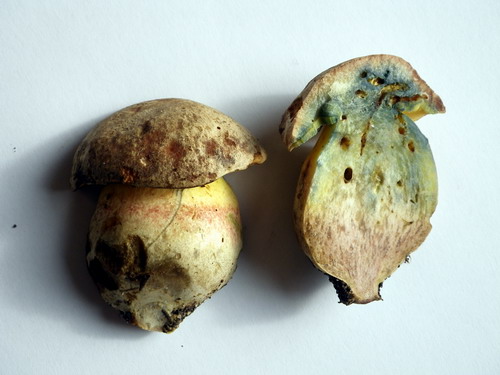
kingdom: Fungi
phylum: Basidiomycota
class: Agaricomycetes
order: Boletales
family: Boletaceae
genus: Butyriboletus
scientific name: Butyriboletus fechtneri
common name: sølvskinnende rørhat
